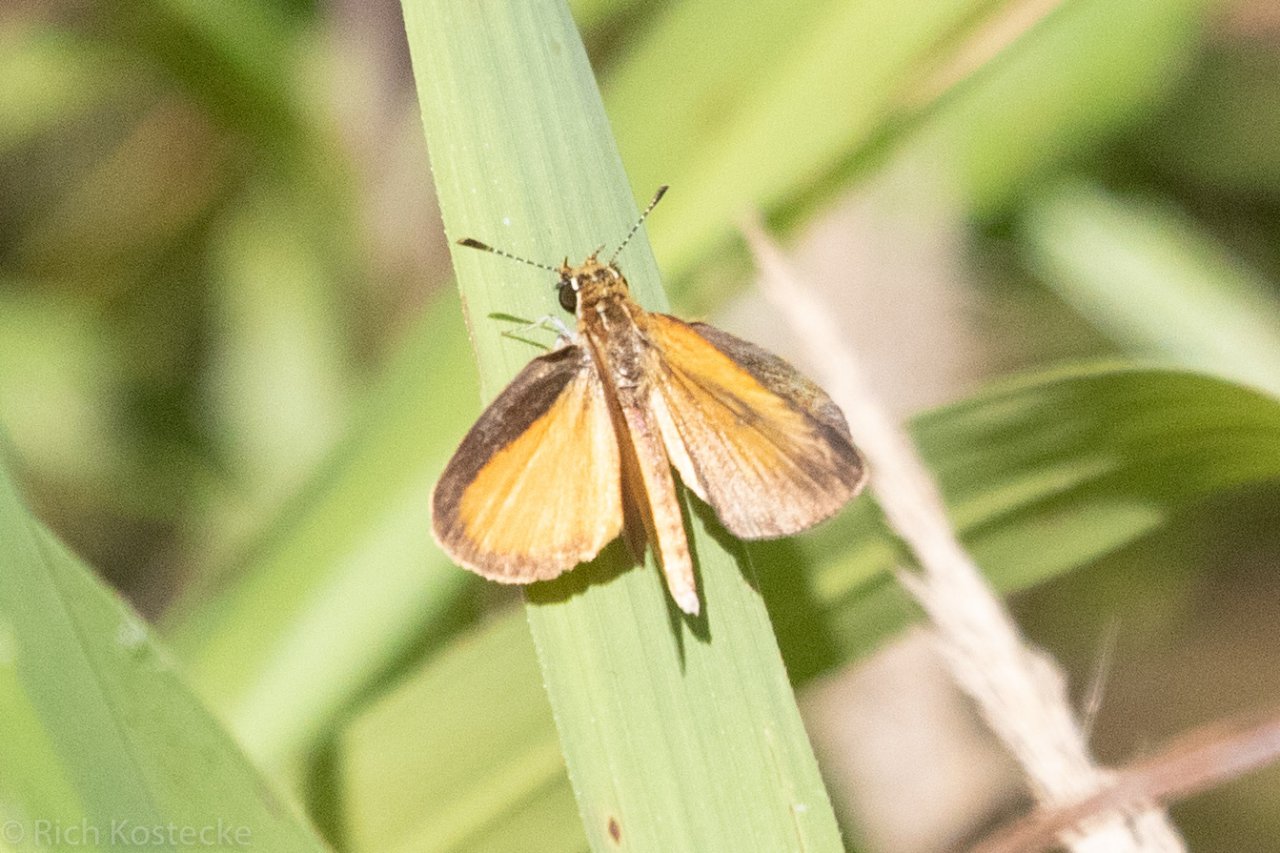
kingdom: Animalia
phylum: Arthropoda
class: Insecta
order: Lepidoptera
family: Hesperiidae
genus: Ancyloxypha
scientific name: Ancyloxypha numitor
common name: Least Skipper
